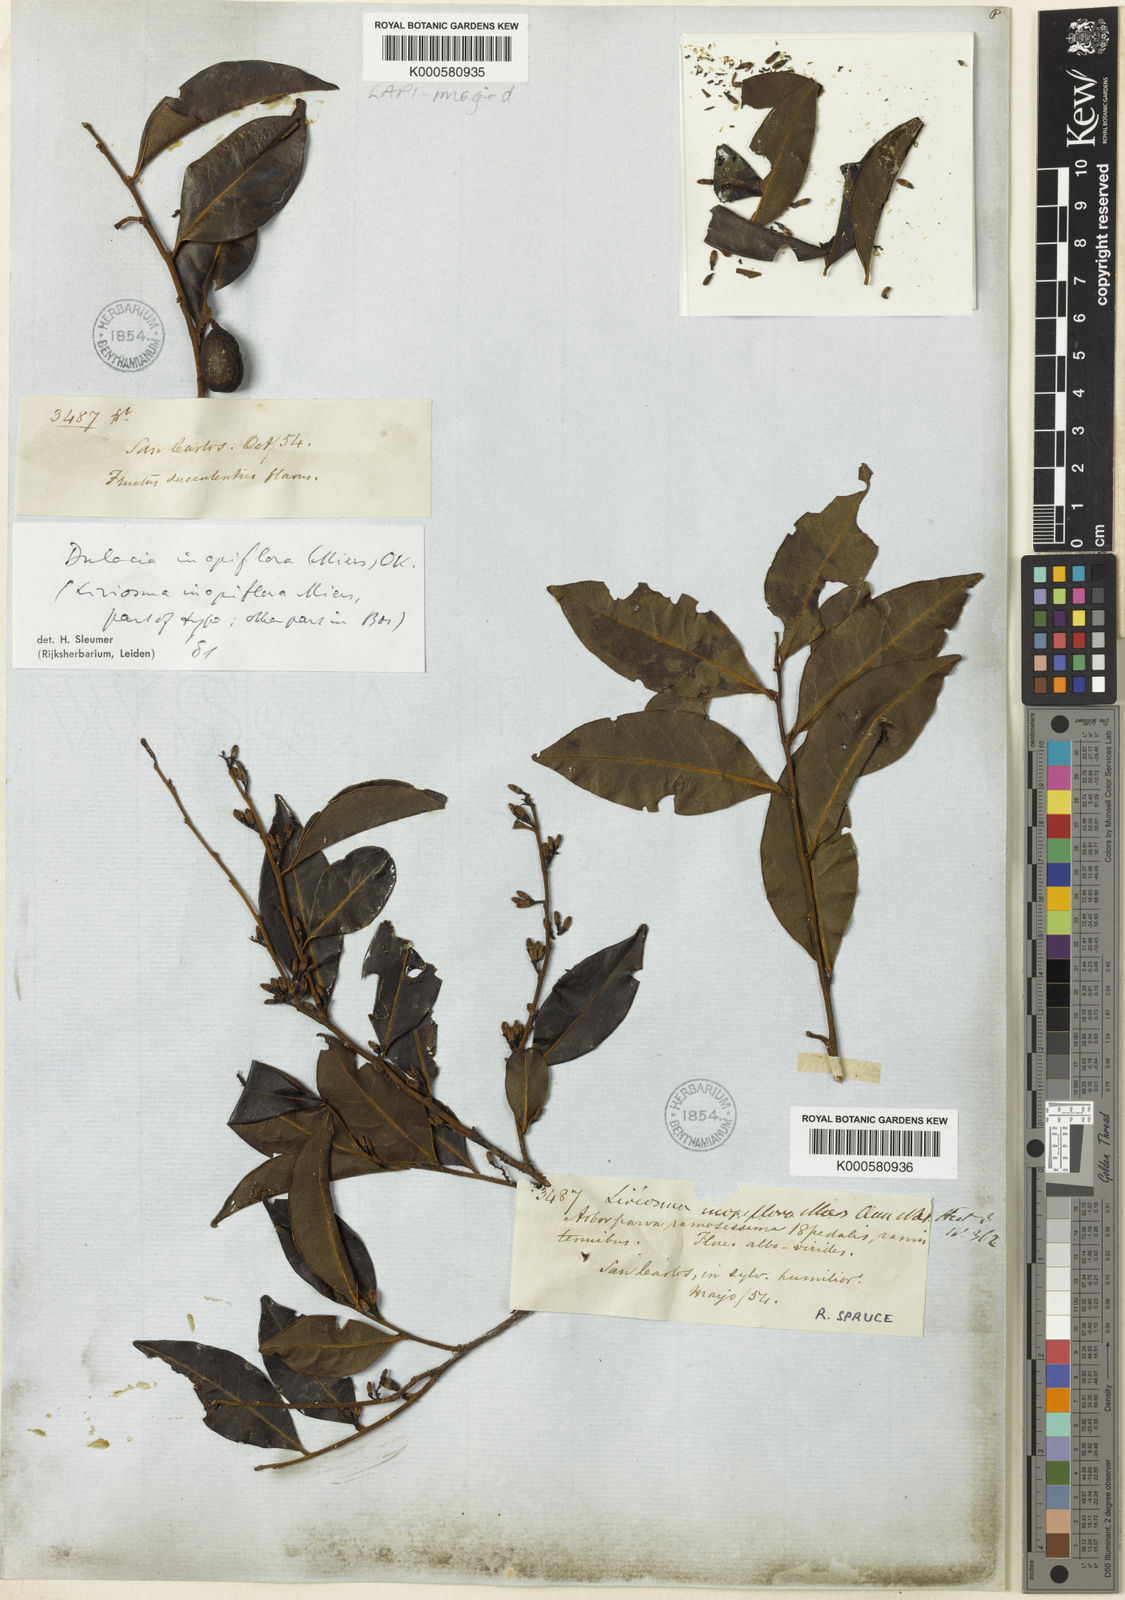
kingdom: Plantae
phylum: Tracheophyta
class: Magnoliopsida
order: Santalales
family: Olacaceae
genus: Dulacia
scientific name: Dulacia inopiflora
